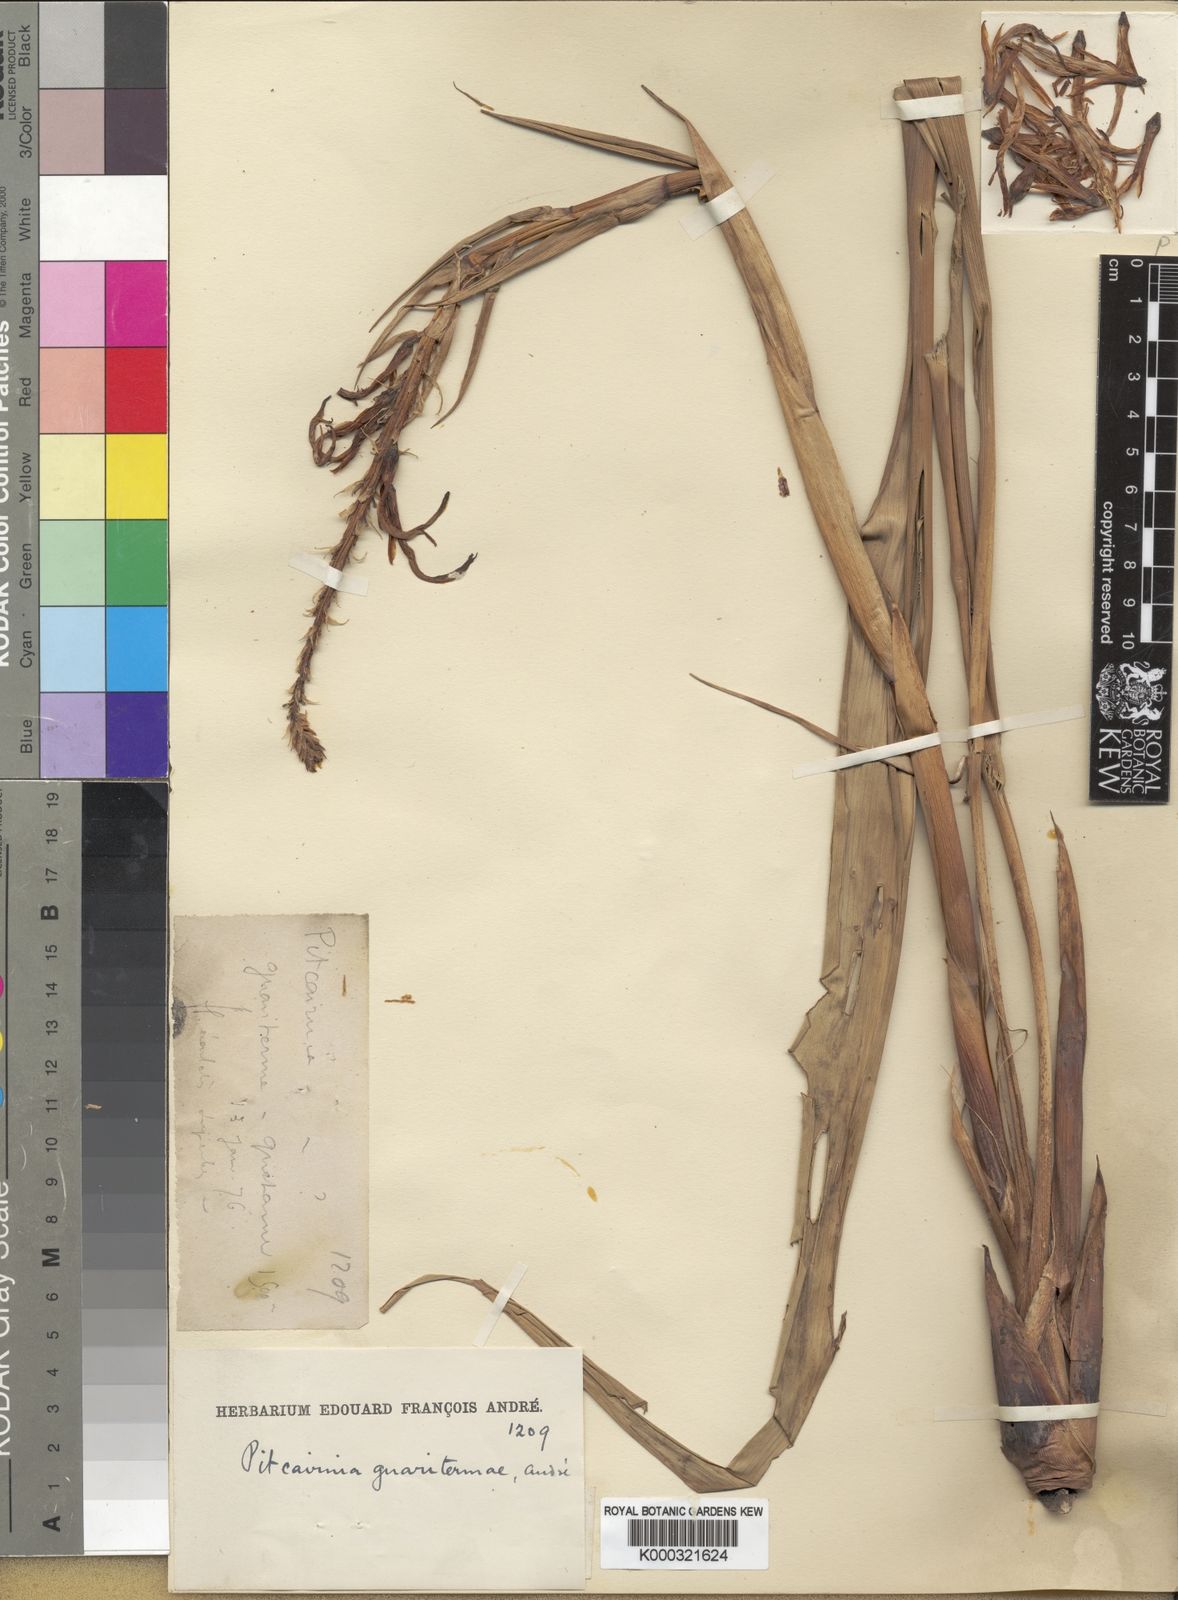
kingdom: Plantae
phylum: Tracheophyta
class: Liliopsida
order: Poales
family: Bromeliaceae
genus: Pitcairnia
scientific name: Pitcairnia
